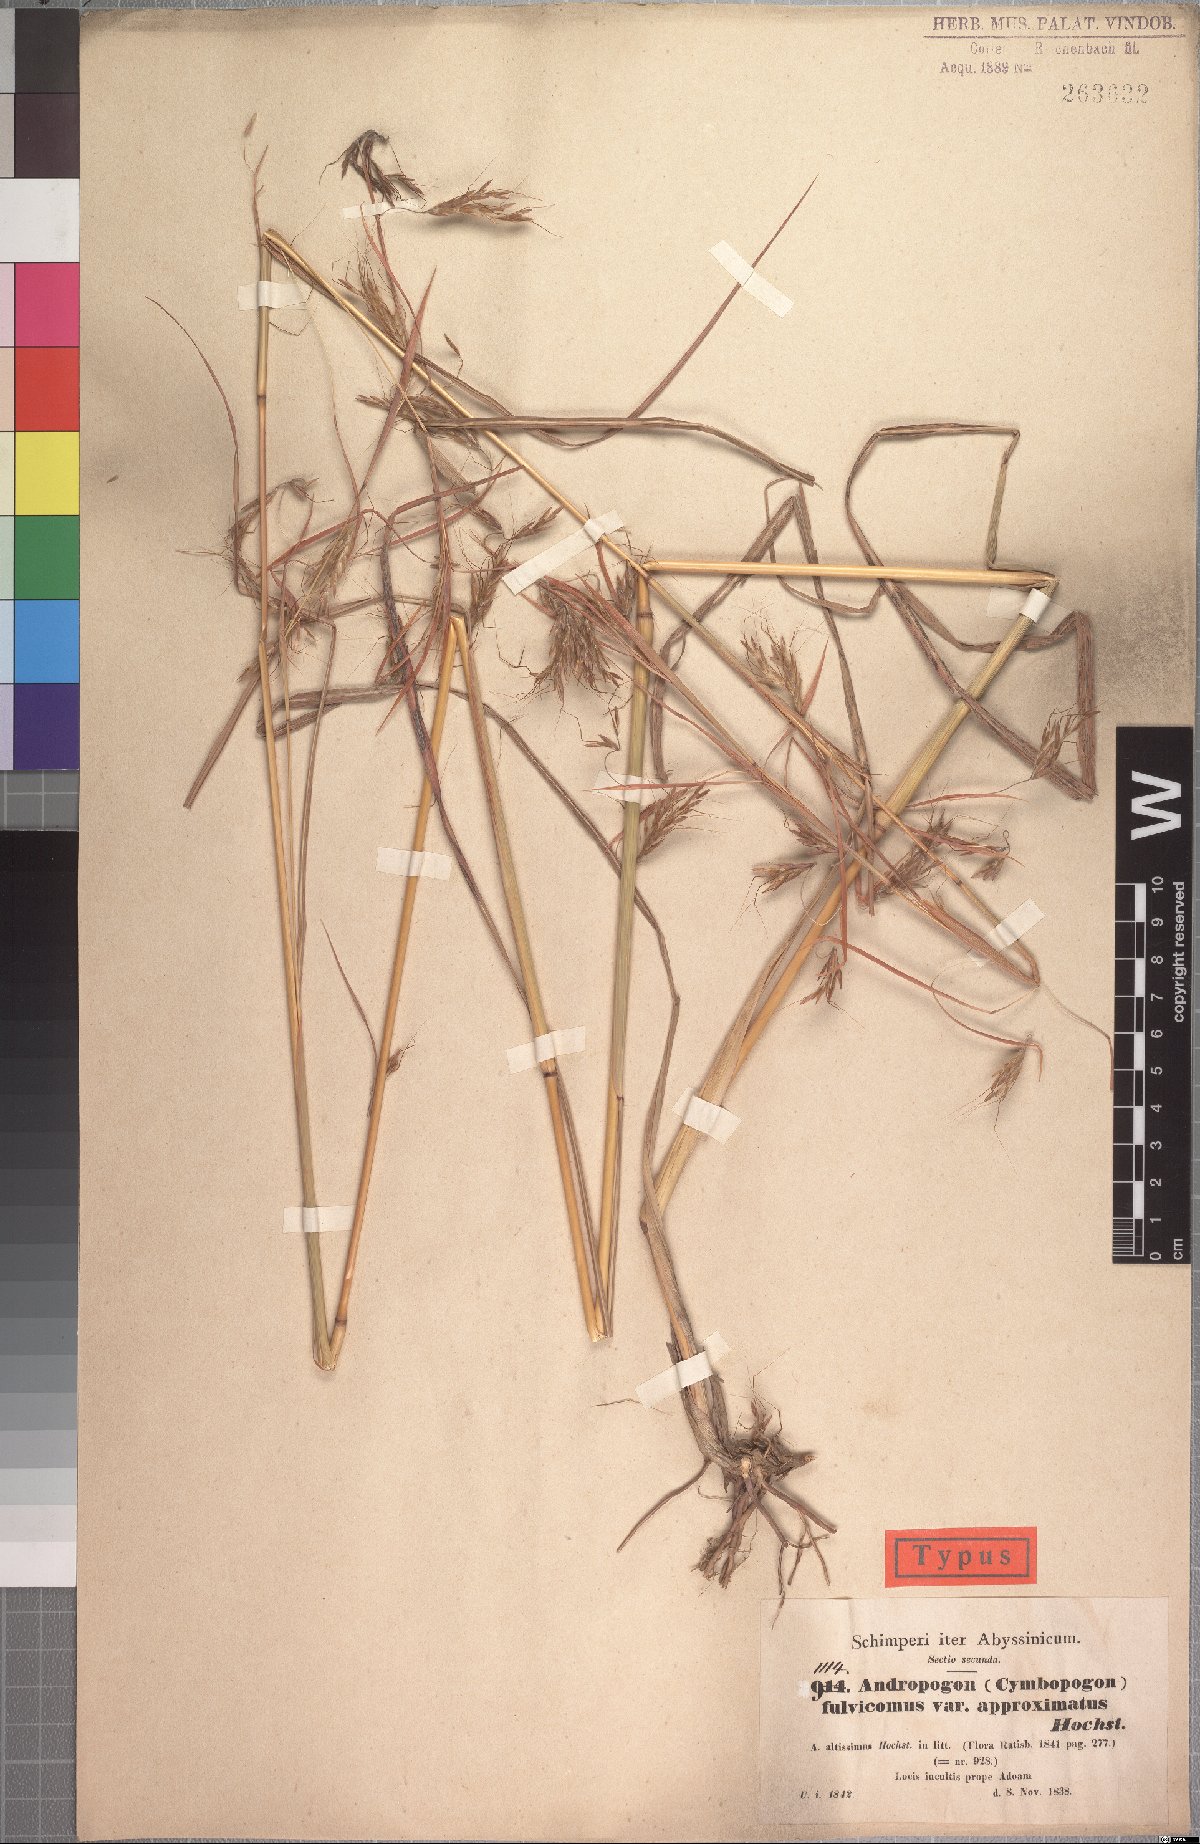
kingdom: Plantae
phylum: Tracheophyta
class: Liliopsida
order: Poales
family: Poaceae
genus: Hyparrhenia
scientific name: Hyparrhenia rufa
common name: Jaraguagrass
